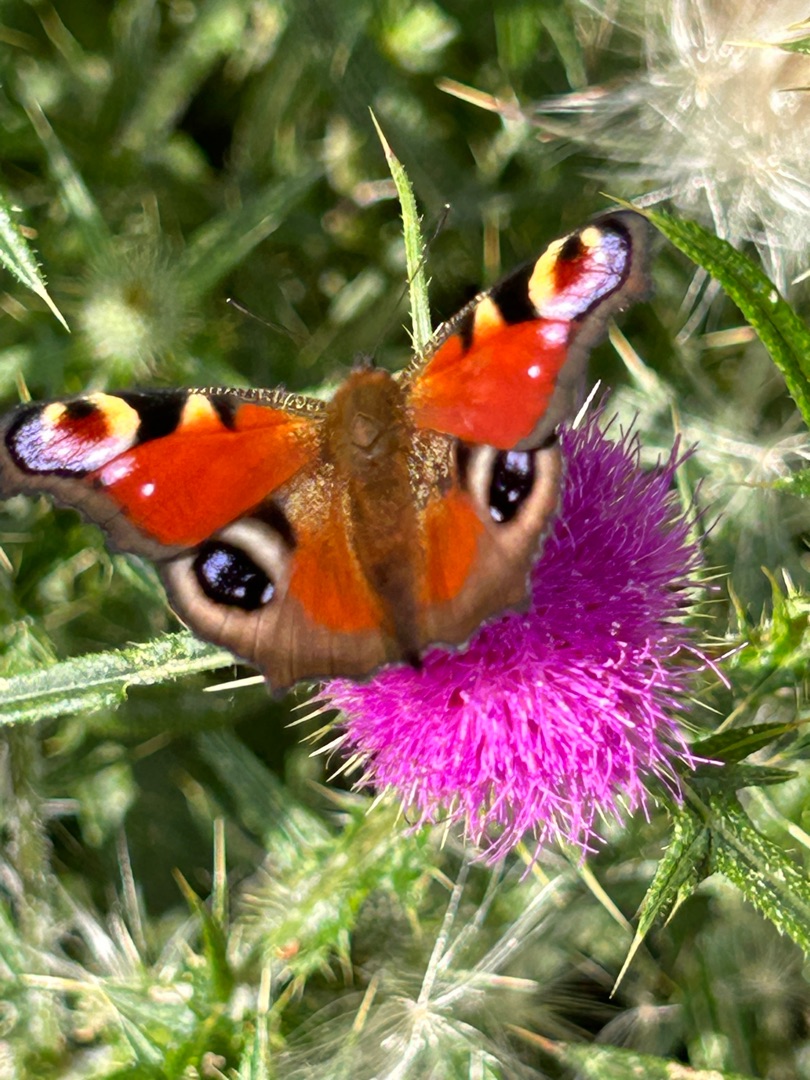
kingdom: Animalia
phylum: Arthropoda
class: Insecta
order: Lepidoptera
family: Nymphalidae
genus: Aglais
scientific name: Aglais io
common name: Dagpåfugleøje
